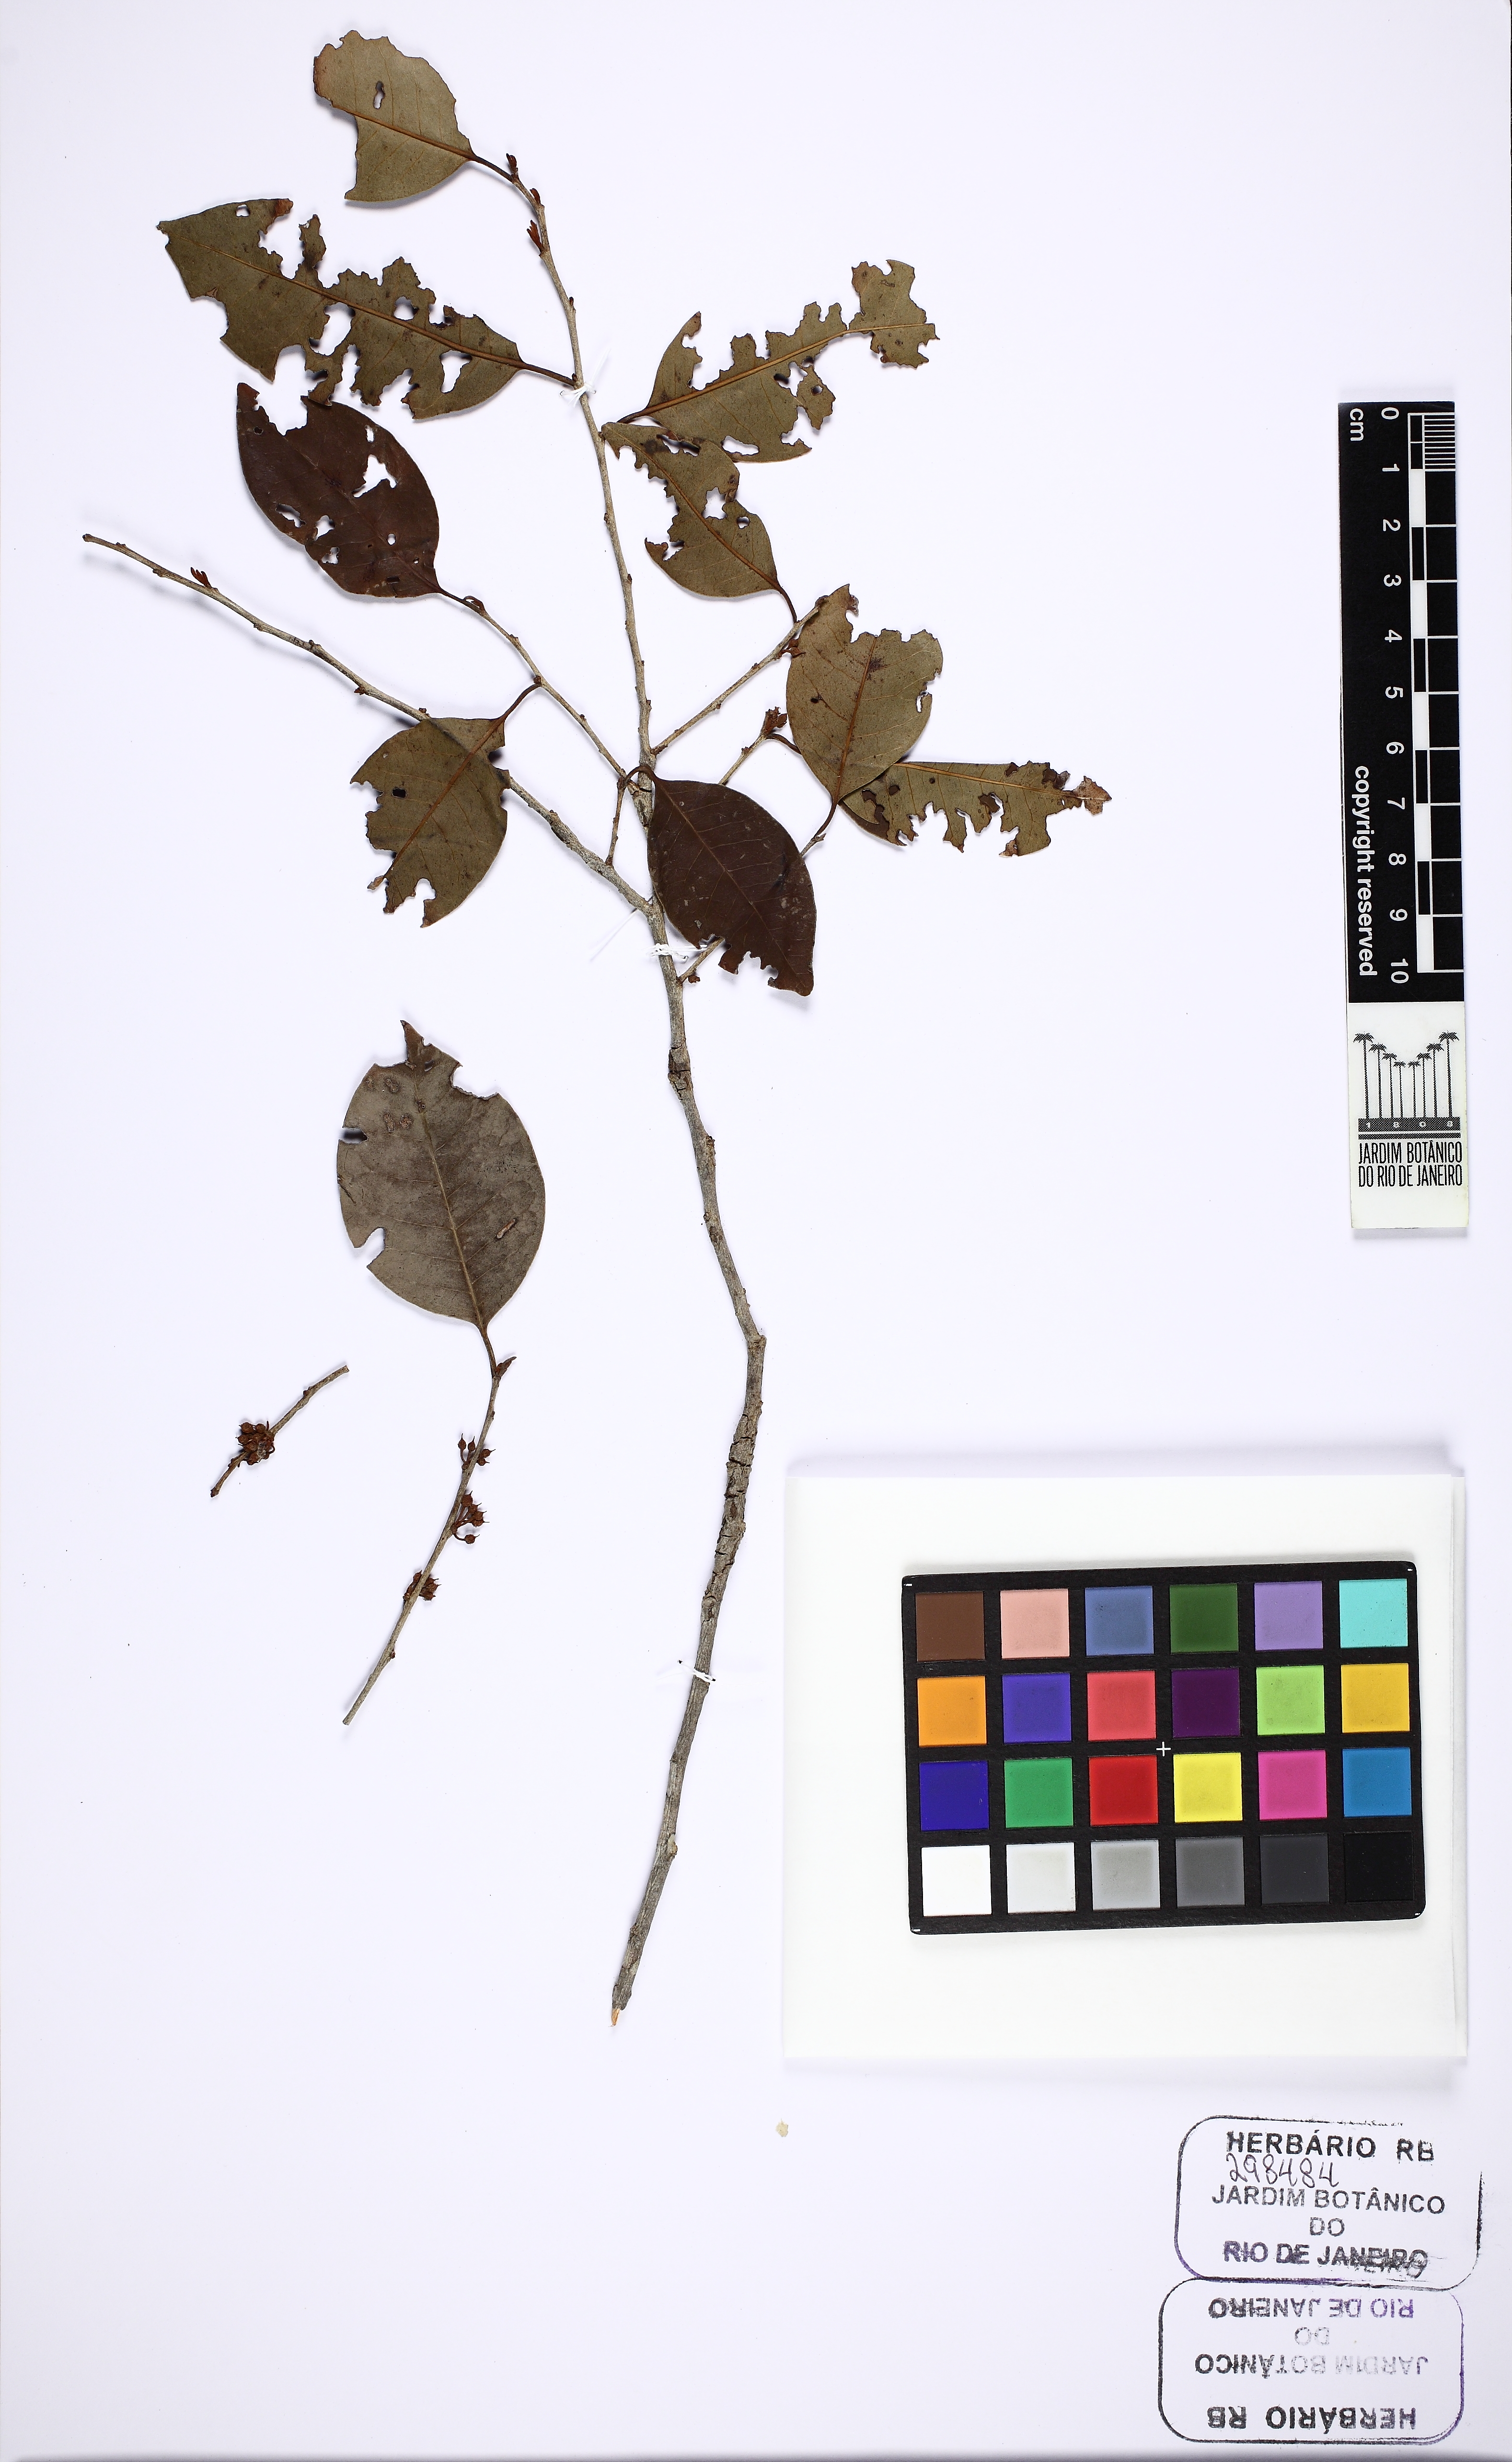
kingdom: Plantae
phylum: Tracheophyta
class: Magnoliopsida
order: Ericales
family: Sapotaceae
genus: Pradosia
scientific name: Pradosia
